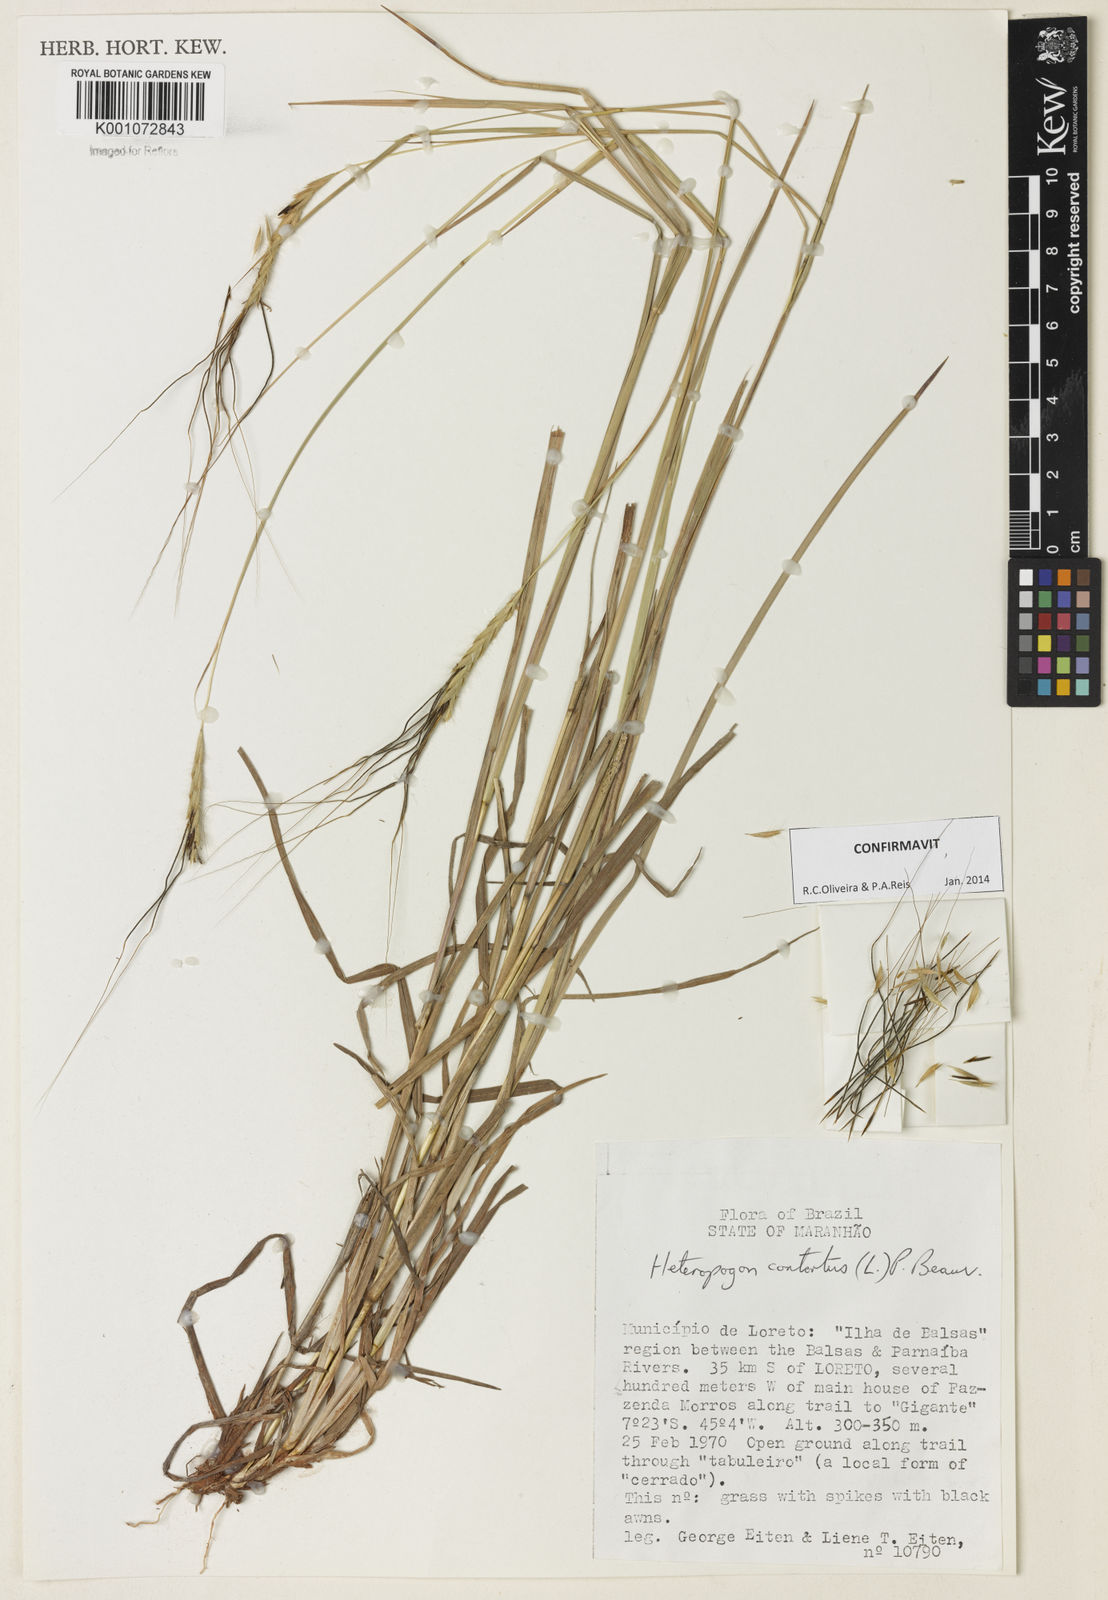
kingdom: Plantae
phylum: Tracheophyta
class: Liliopsida
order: Poales
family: Poaceae
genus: Heteropogon
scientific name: Heteropogon contortus
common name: Tanglehead
